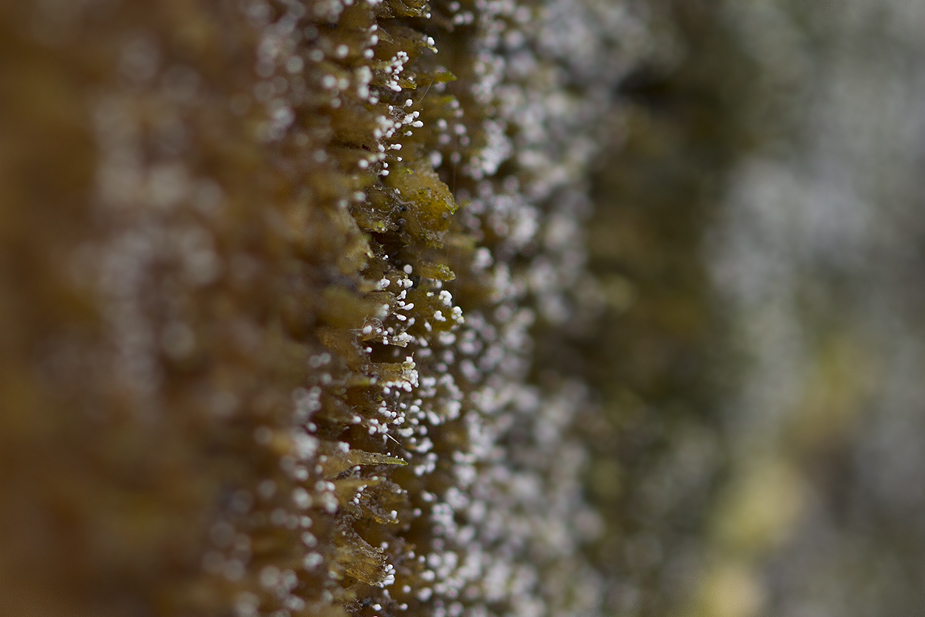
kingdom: Fungi
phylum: Ascomycota
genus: Sphaeridium
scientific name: Sphaeridium candidulum
